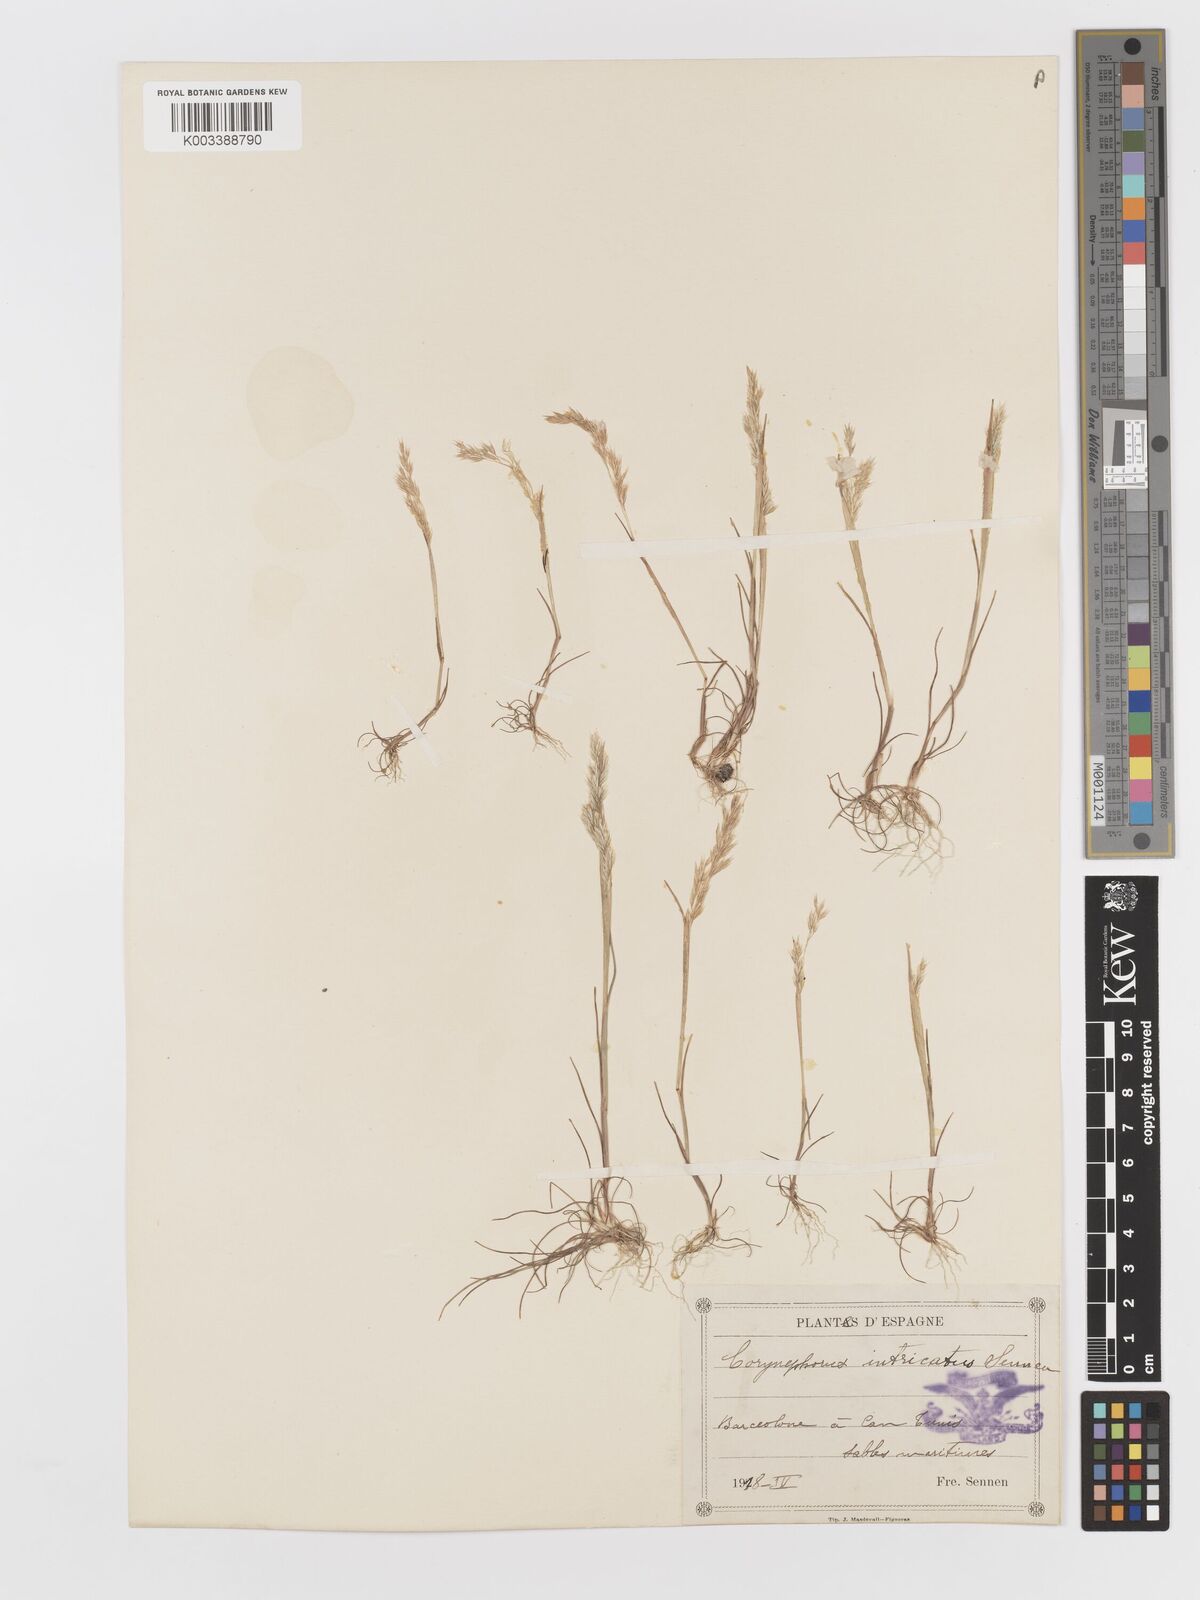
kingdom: Plantae
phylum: Tracheophyta
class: Liliopsida
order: Poales
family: Poaceae
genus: Corynephorus
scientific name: Corynephorus canescens
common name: Grey hair-grass
